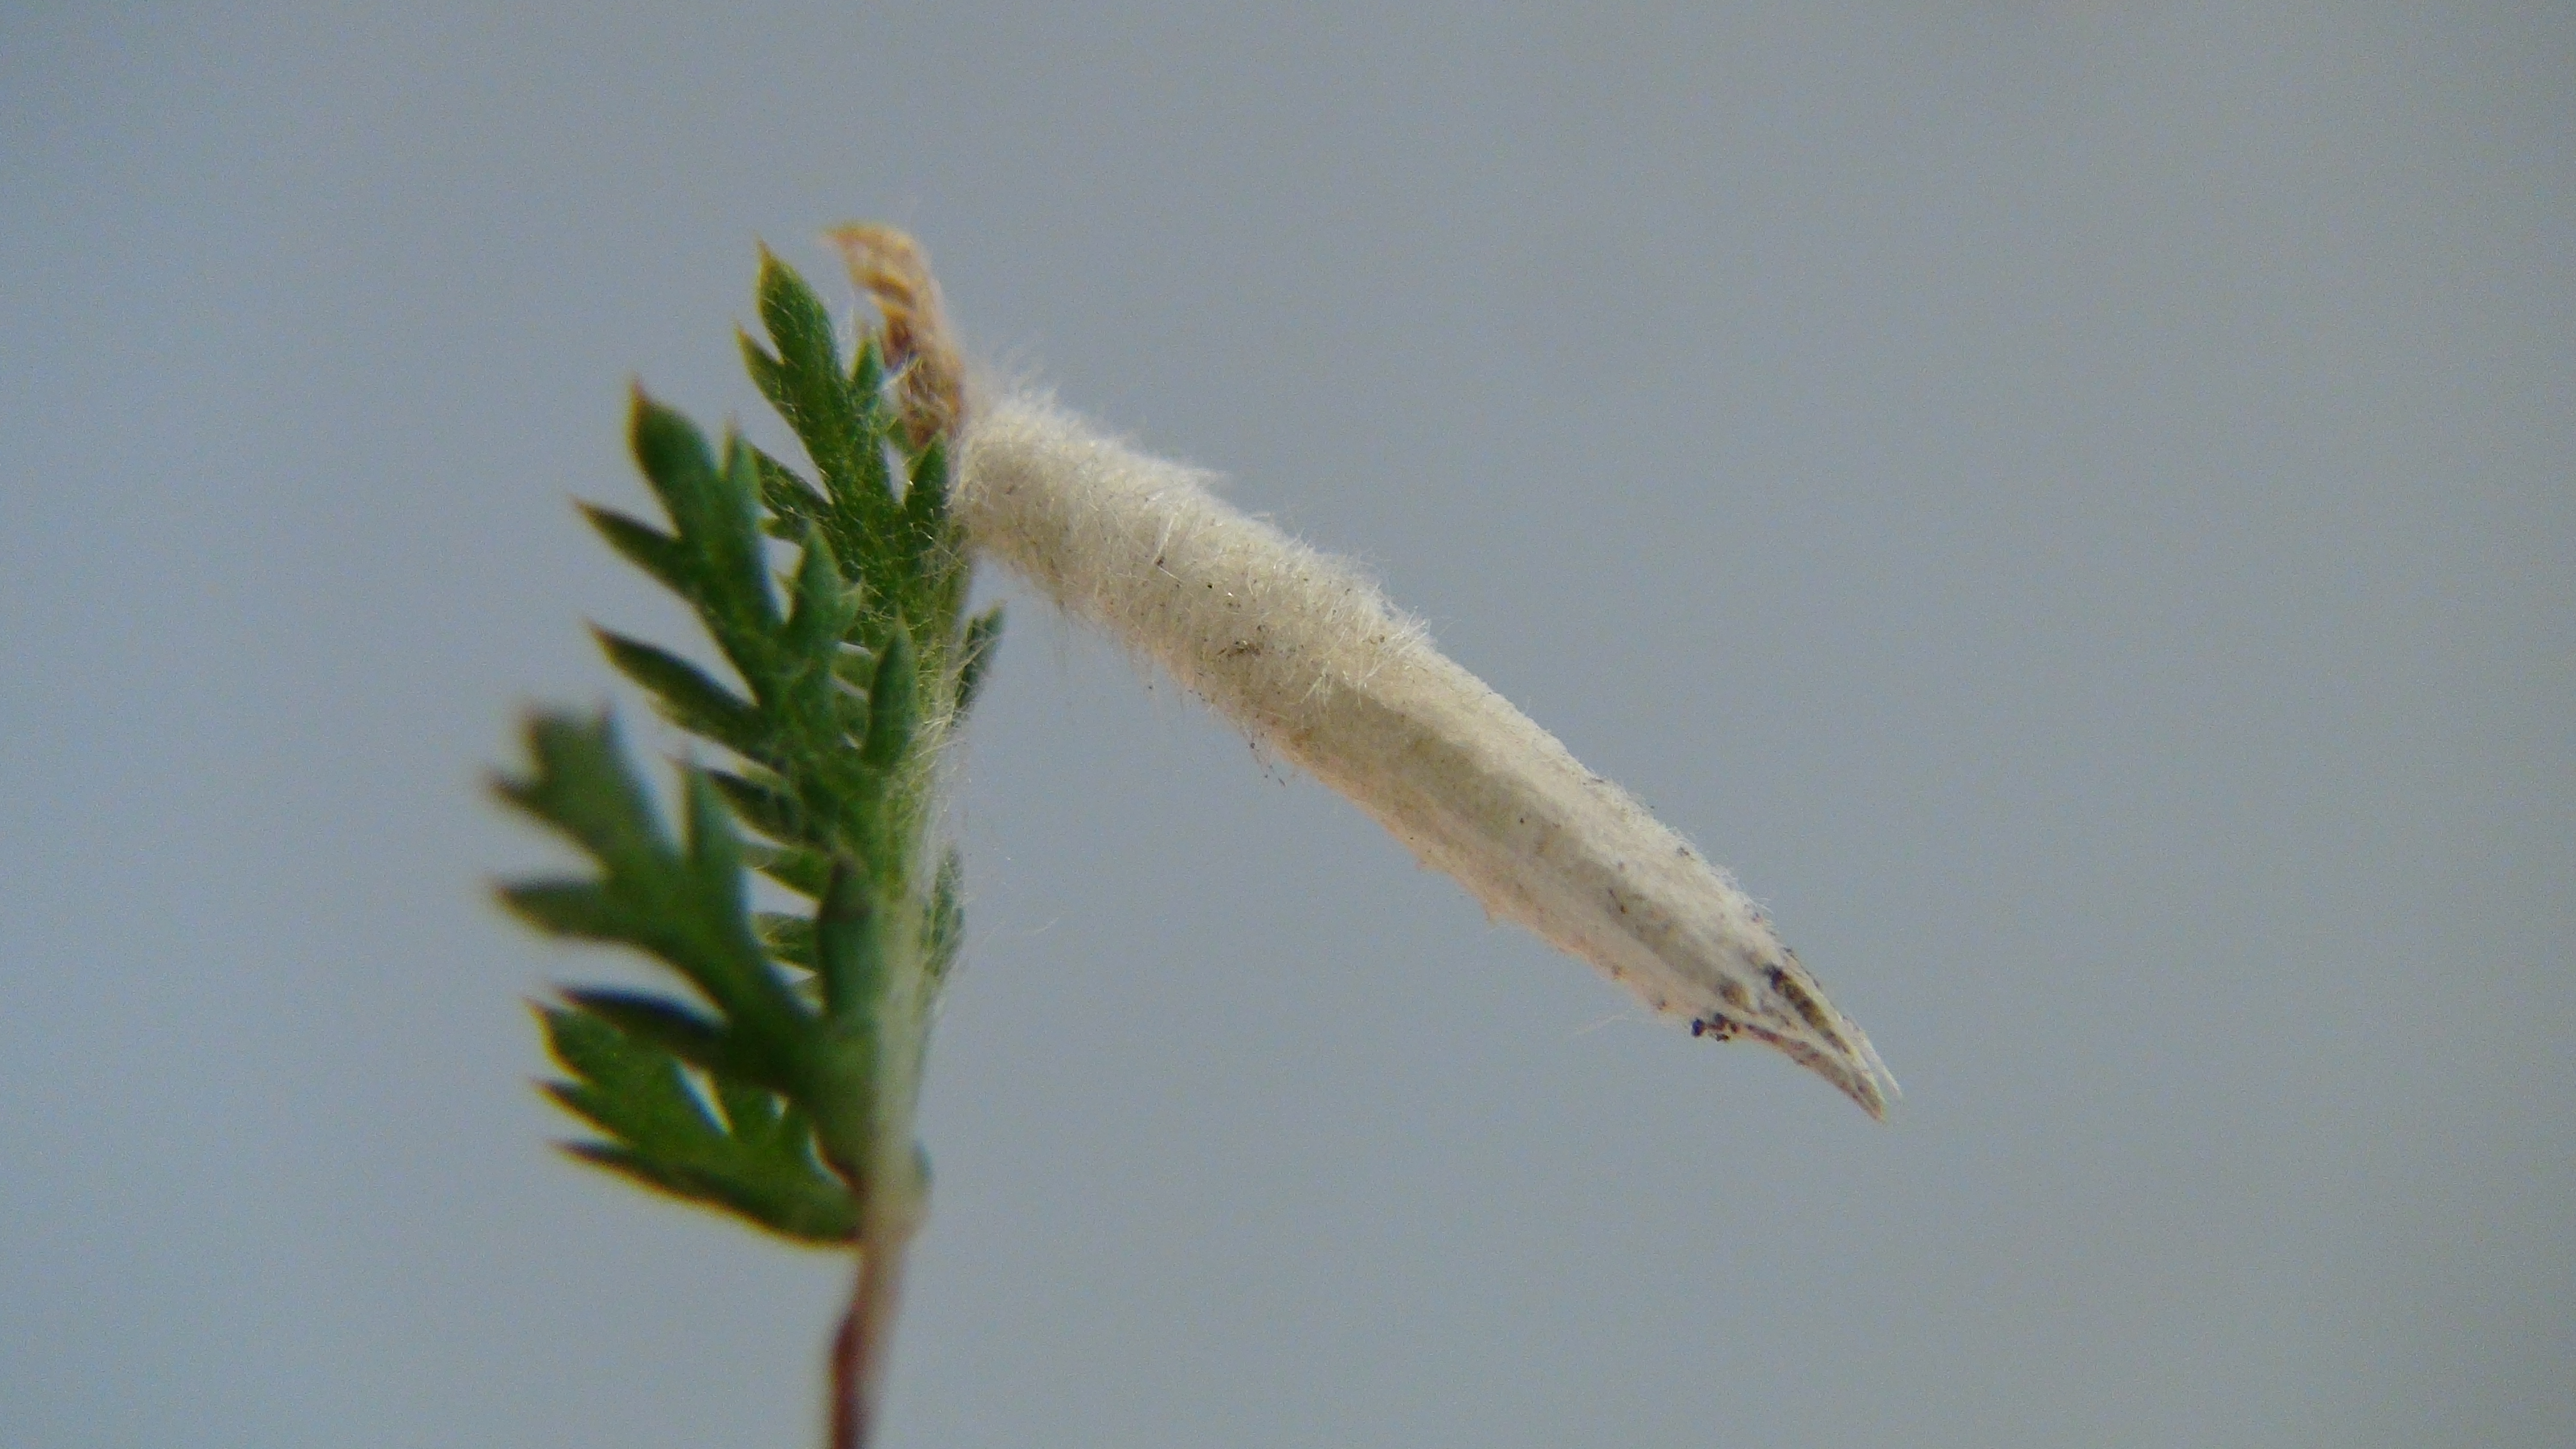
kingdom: Animalia
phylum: Arthropoda
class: Insecta
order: Lepidoptera
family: Coleophoridae
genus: Coleophora
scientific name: Coleophora expressella
